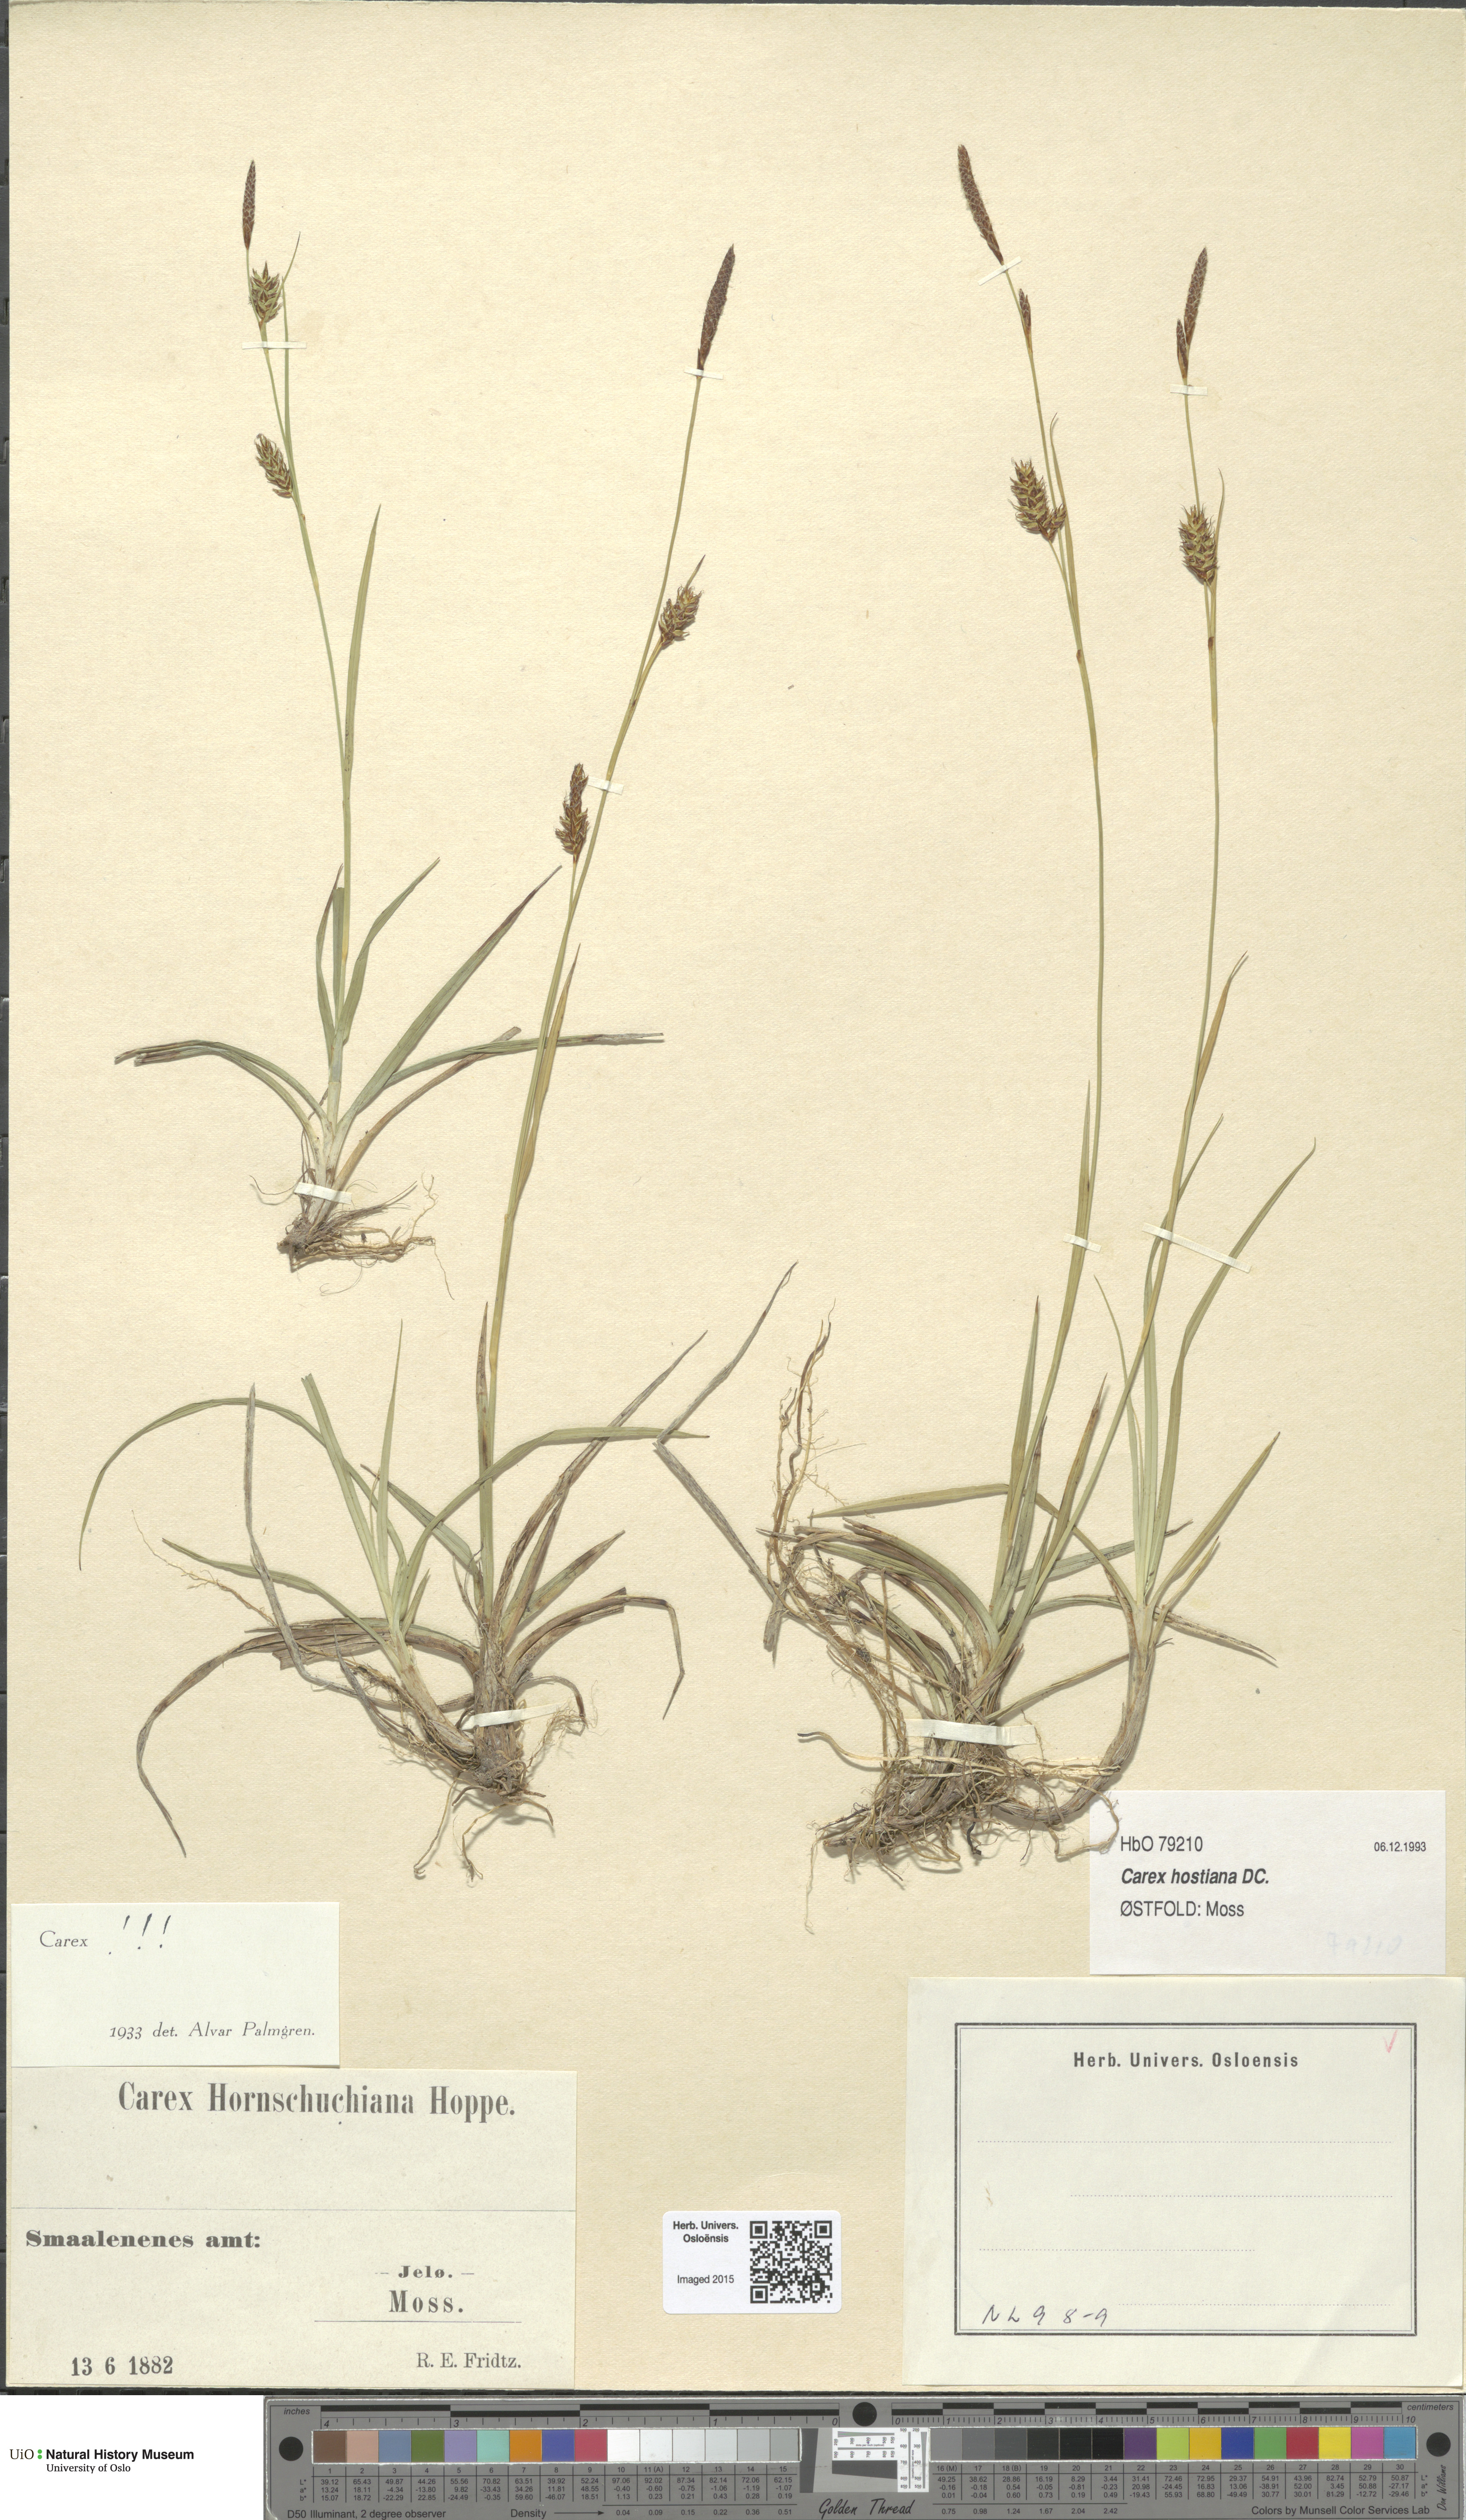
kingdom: Plantae
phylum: Tracheophyta
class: Liliopsida
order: Poales
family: Cyperaceae
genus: Carex
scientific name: Carex hostiana
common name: Tawny sedge
